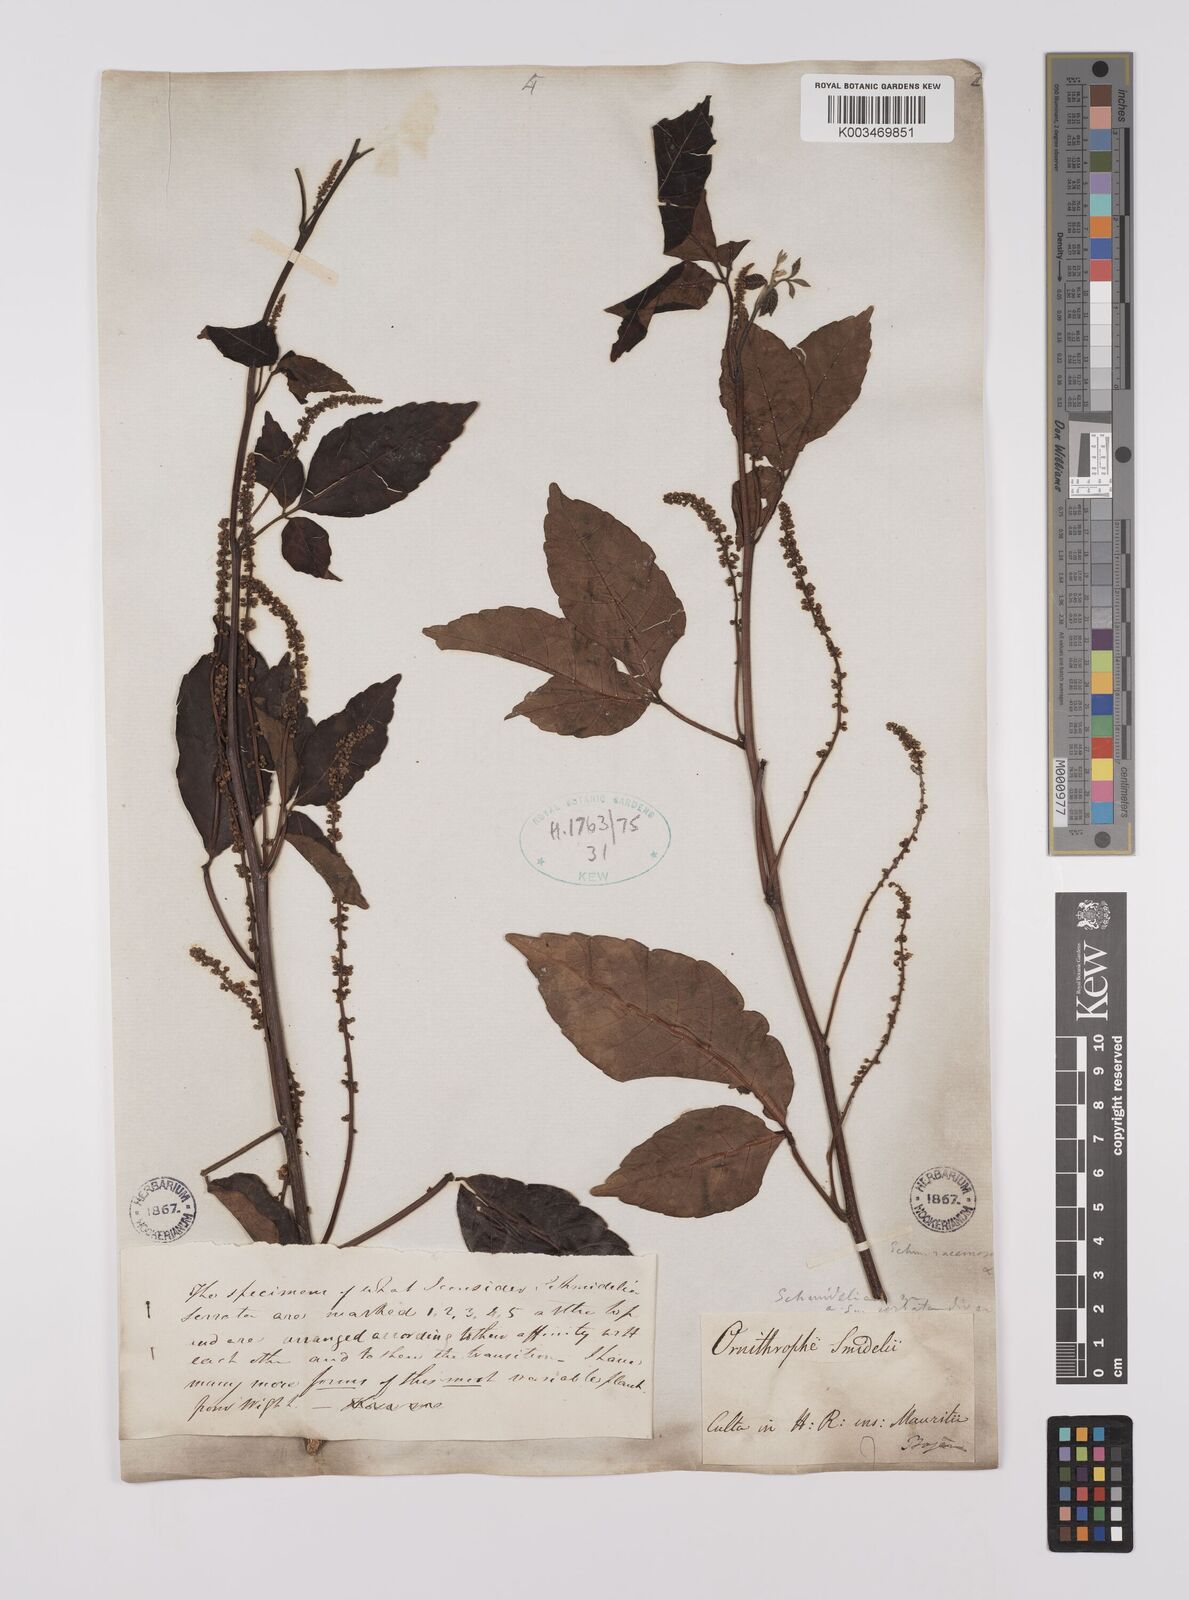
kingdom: Plantae
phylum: Tracheophyta
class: Magnoliopsida
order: Sapindales
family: Sapindaceae
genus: Allophylus
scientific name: Allophylus
